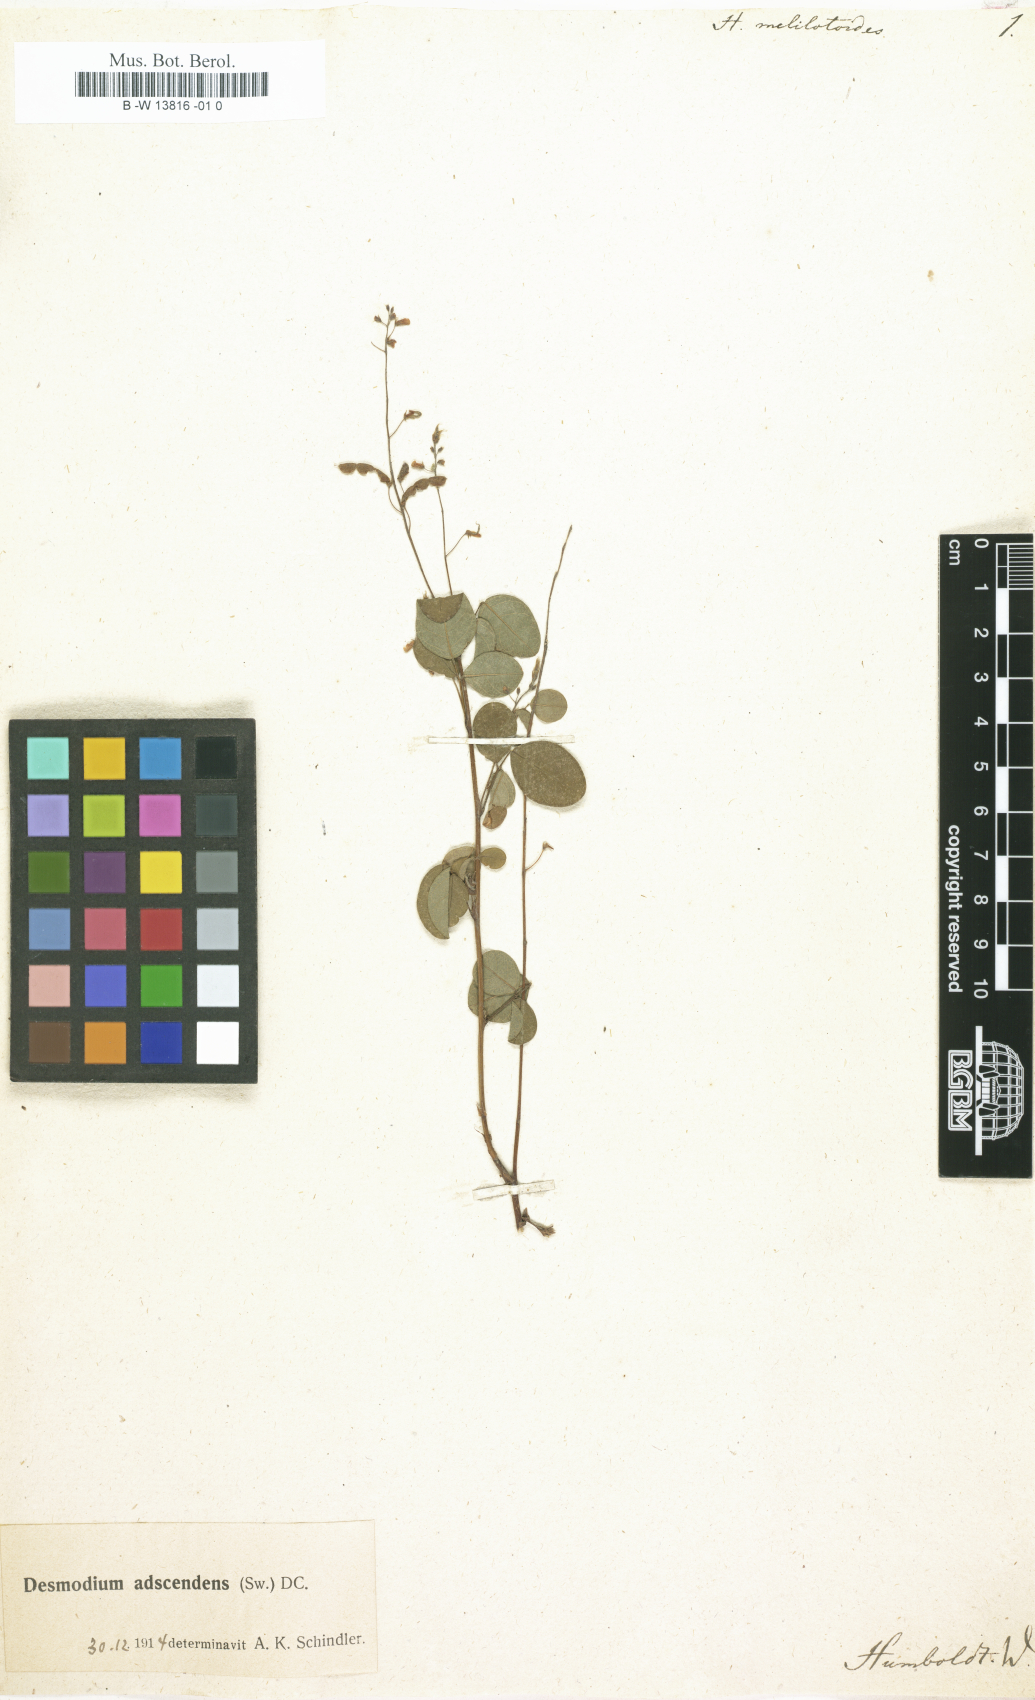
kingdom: Plantae
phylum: Tracheophyta
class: Magnoliopsida
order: Fabales
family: Fabaceae
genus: Hedysarum
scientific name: Hedysarum
